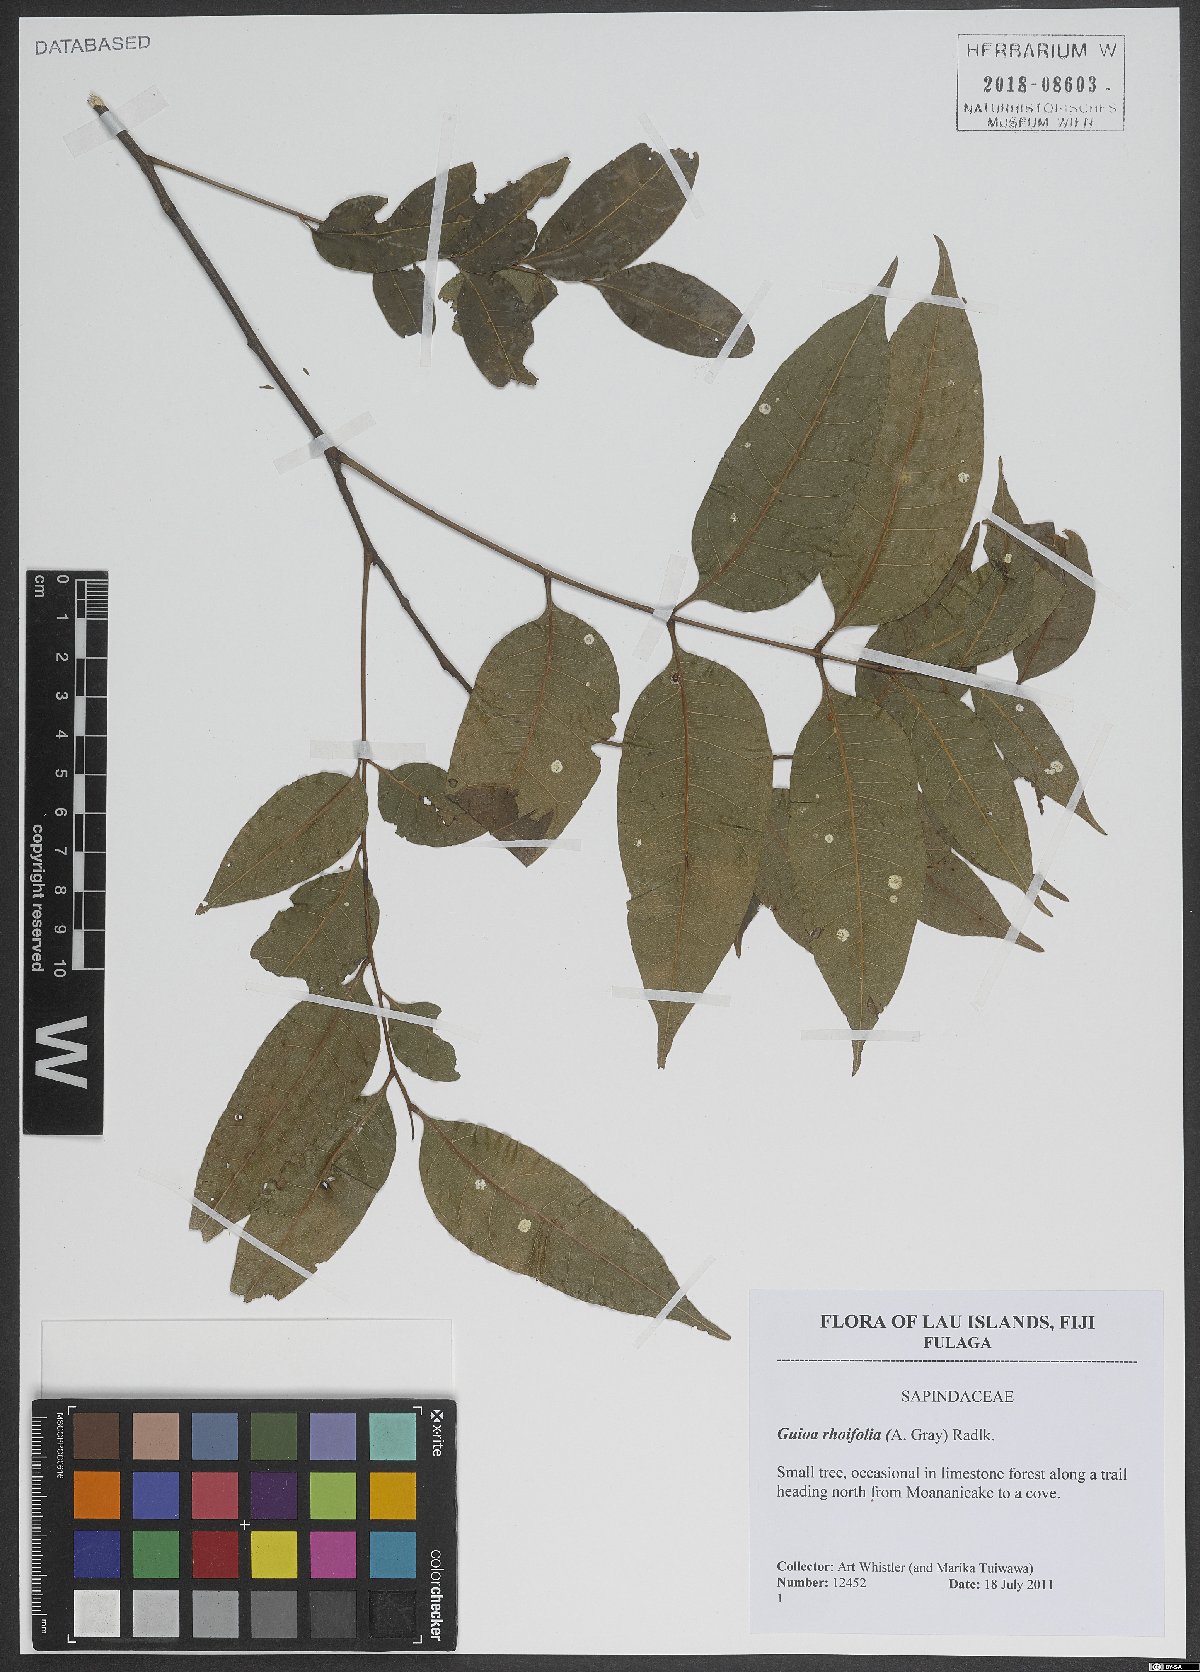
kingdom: Plantae
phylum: Tracheophyta
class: Magnoliopsida
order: Sapindales
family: Sapindaceae
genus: Guioa
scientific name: Guioa rhoifolia
